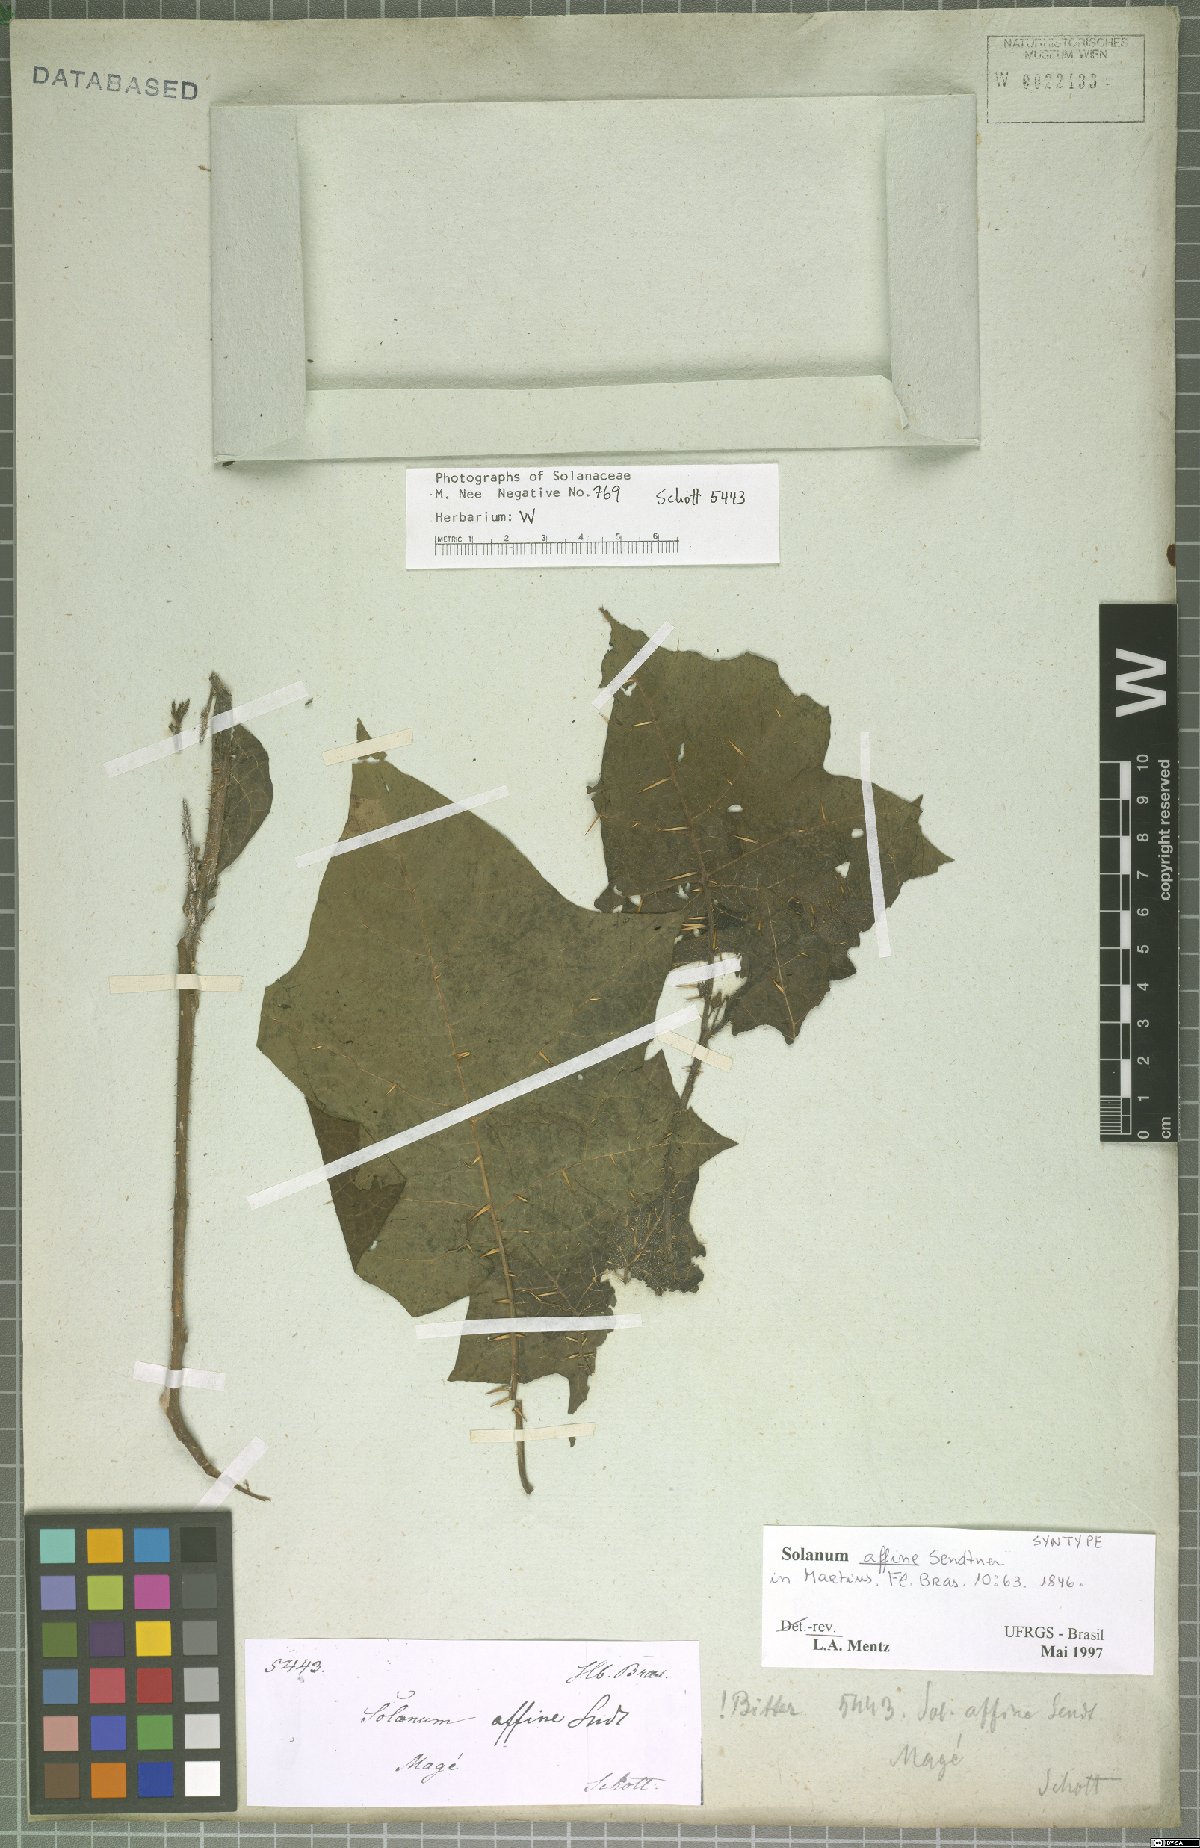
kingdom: Plantae
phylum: Tracheophyta
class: Magnoliopsida
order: Solanales
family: Solanaceae
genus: Solanum
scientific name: Solanum affine
